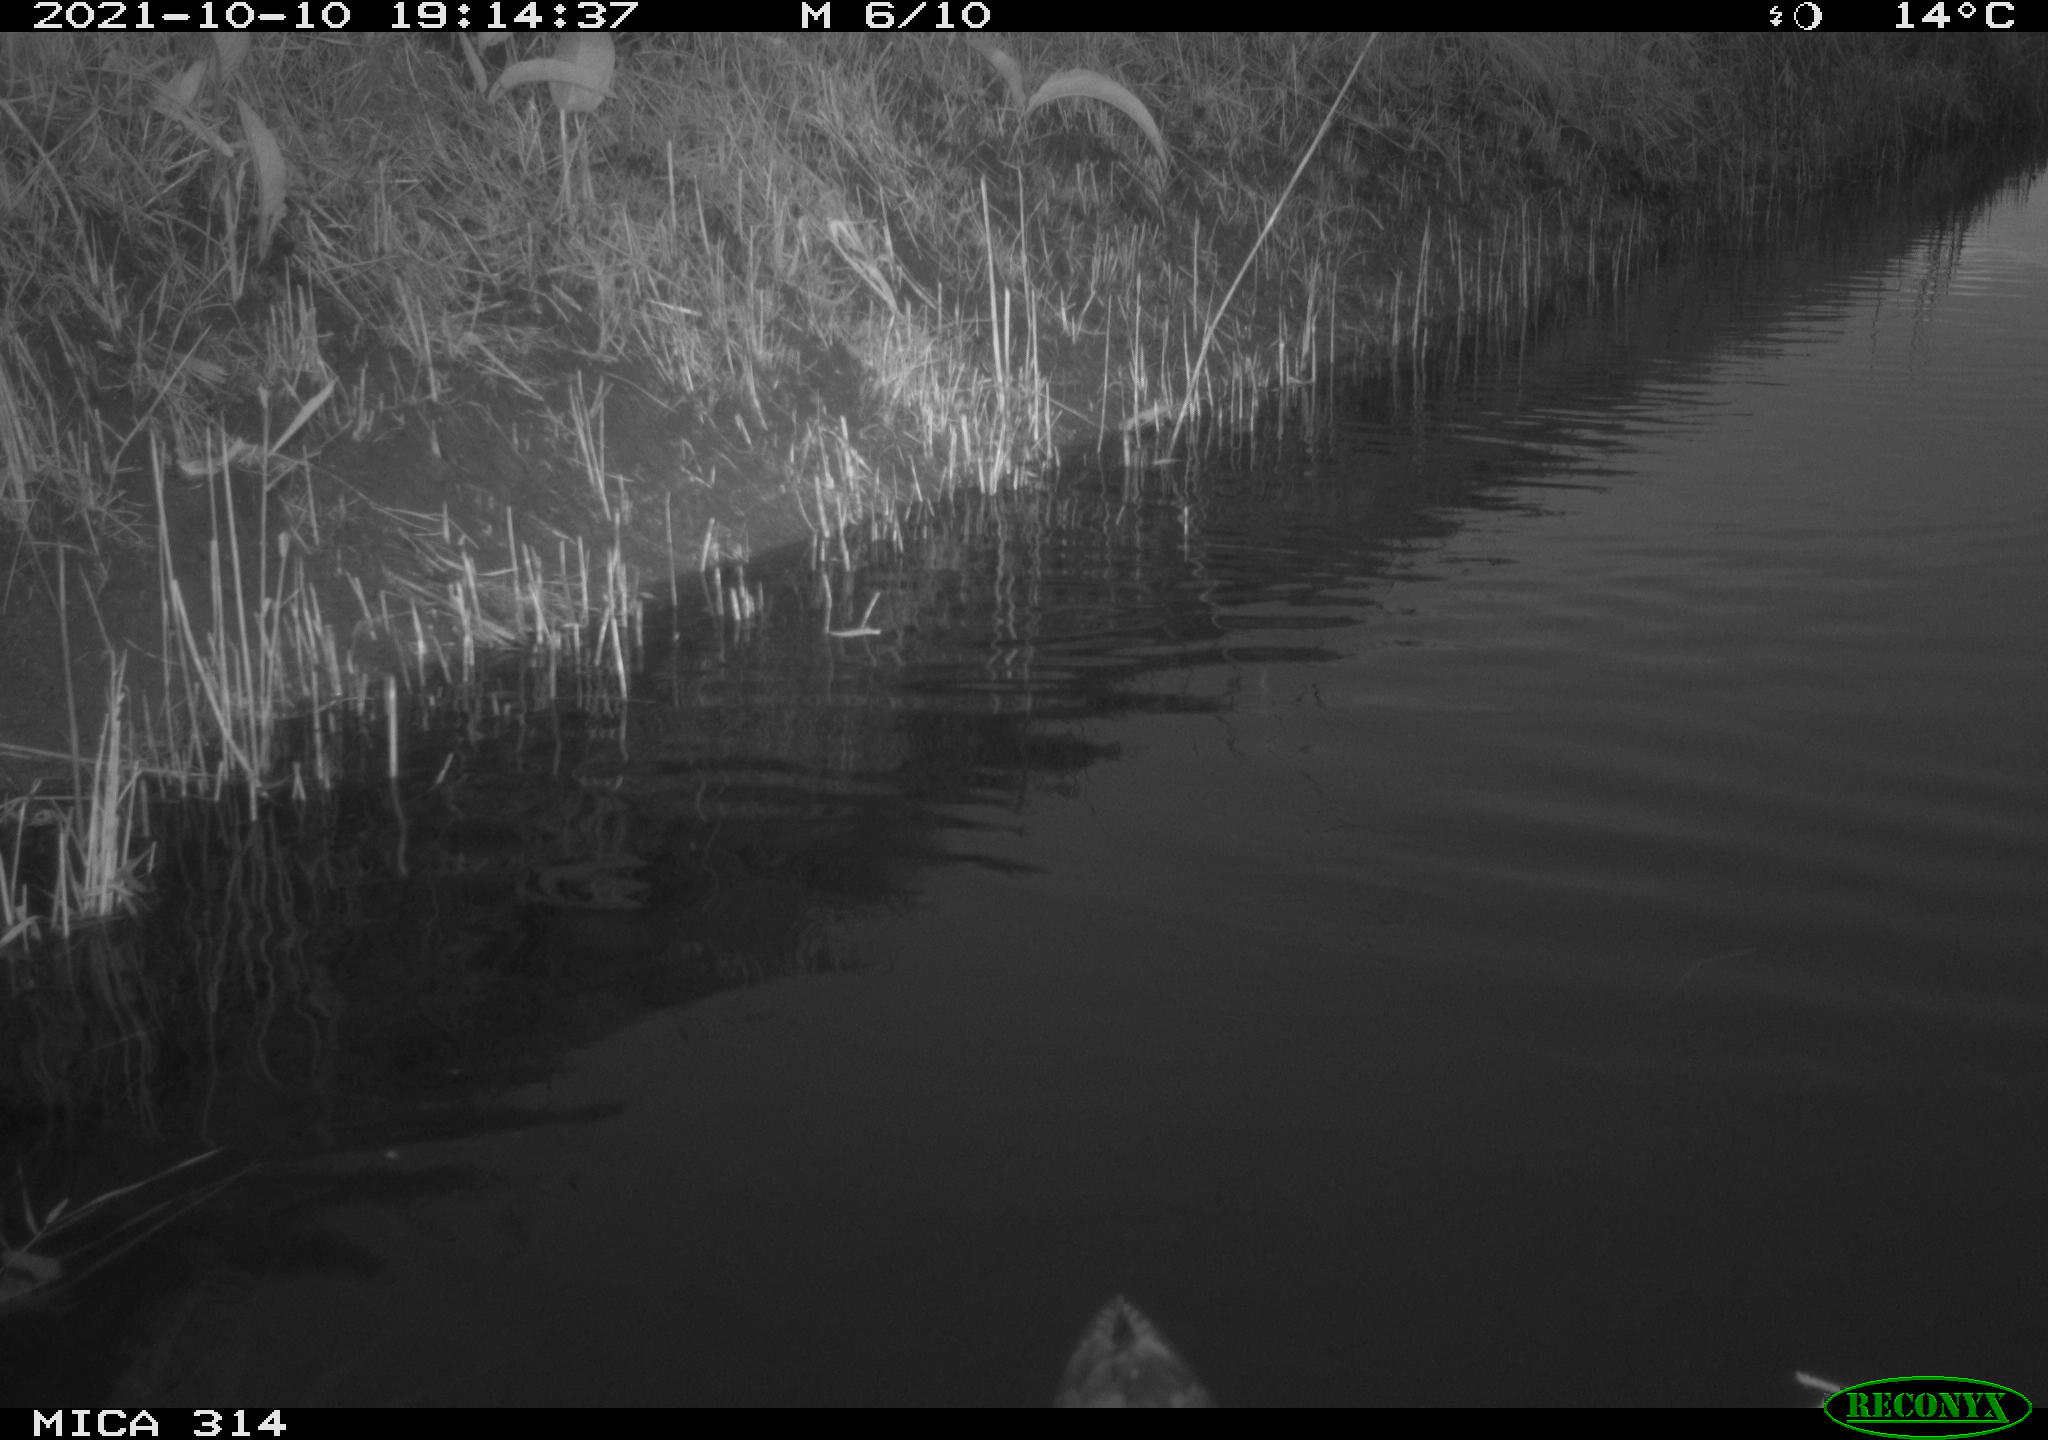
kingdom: Animalia
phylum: Chordata
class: Aves
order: Anseriformes
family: Anatidae
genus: Anas
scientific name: Anas
